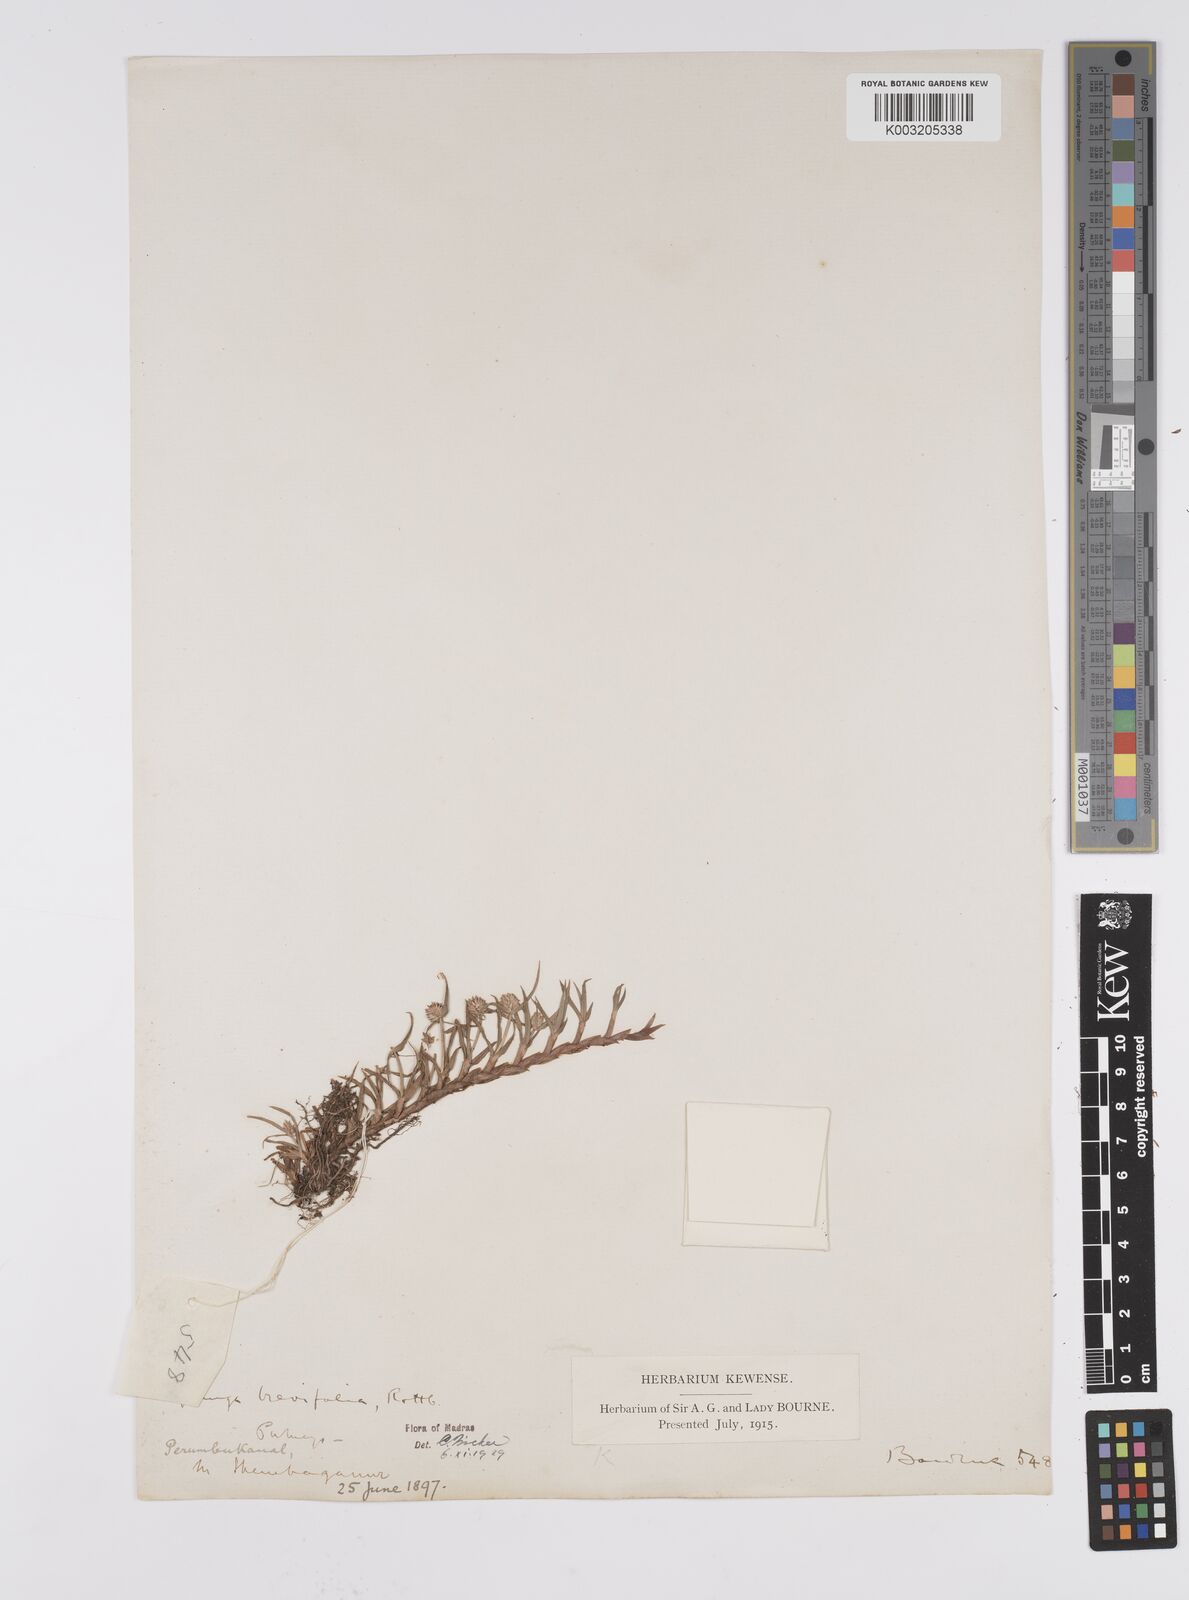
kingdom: Plantae
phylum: Tracheophyta
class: Liliopsida
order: Poales
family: Cyperaceae
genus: Cyperus
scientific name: Cyperus brevifolius
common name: Globe kyllinga
